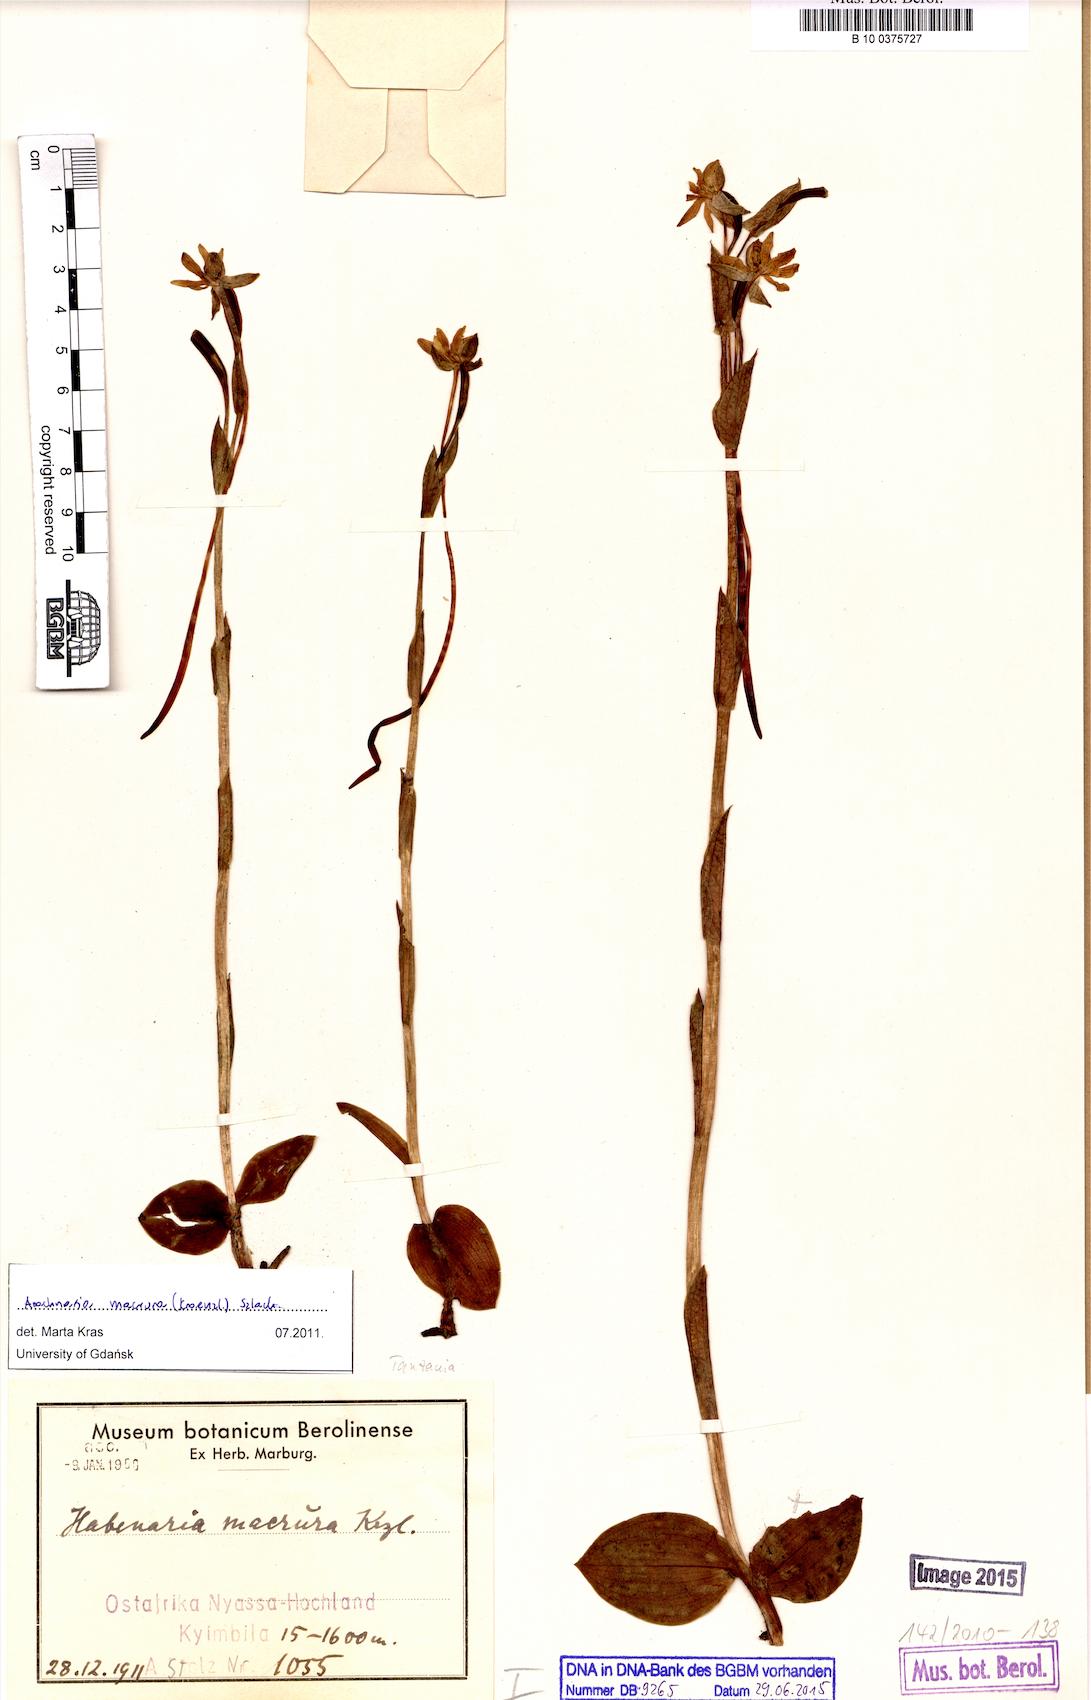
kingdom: Plantae
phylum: Tracheophyta
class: Liliopsida
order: Asparagales
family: Orchidaceae
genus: Habenaria
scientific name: Habenaria macrura
